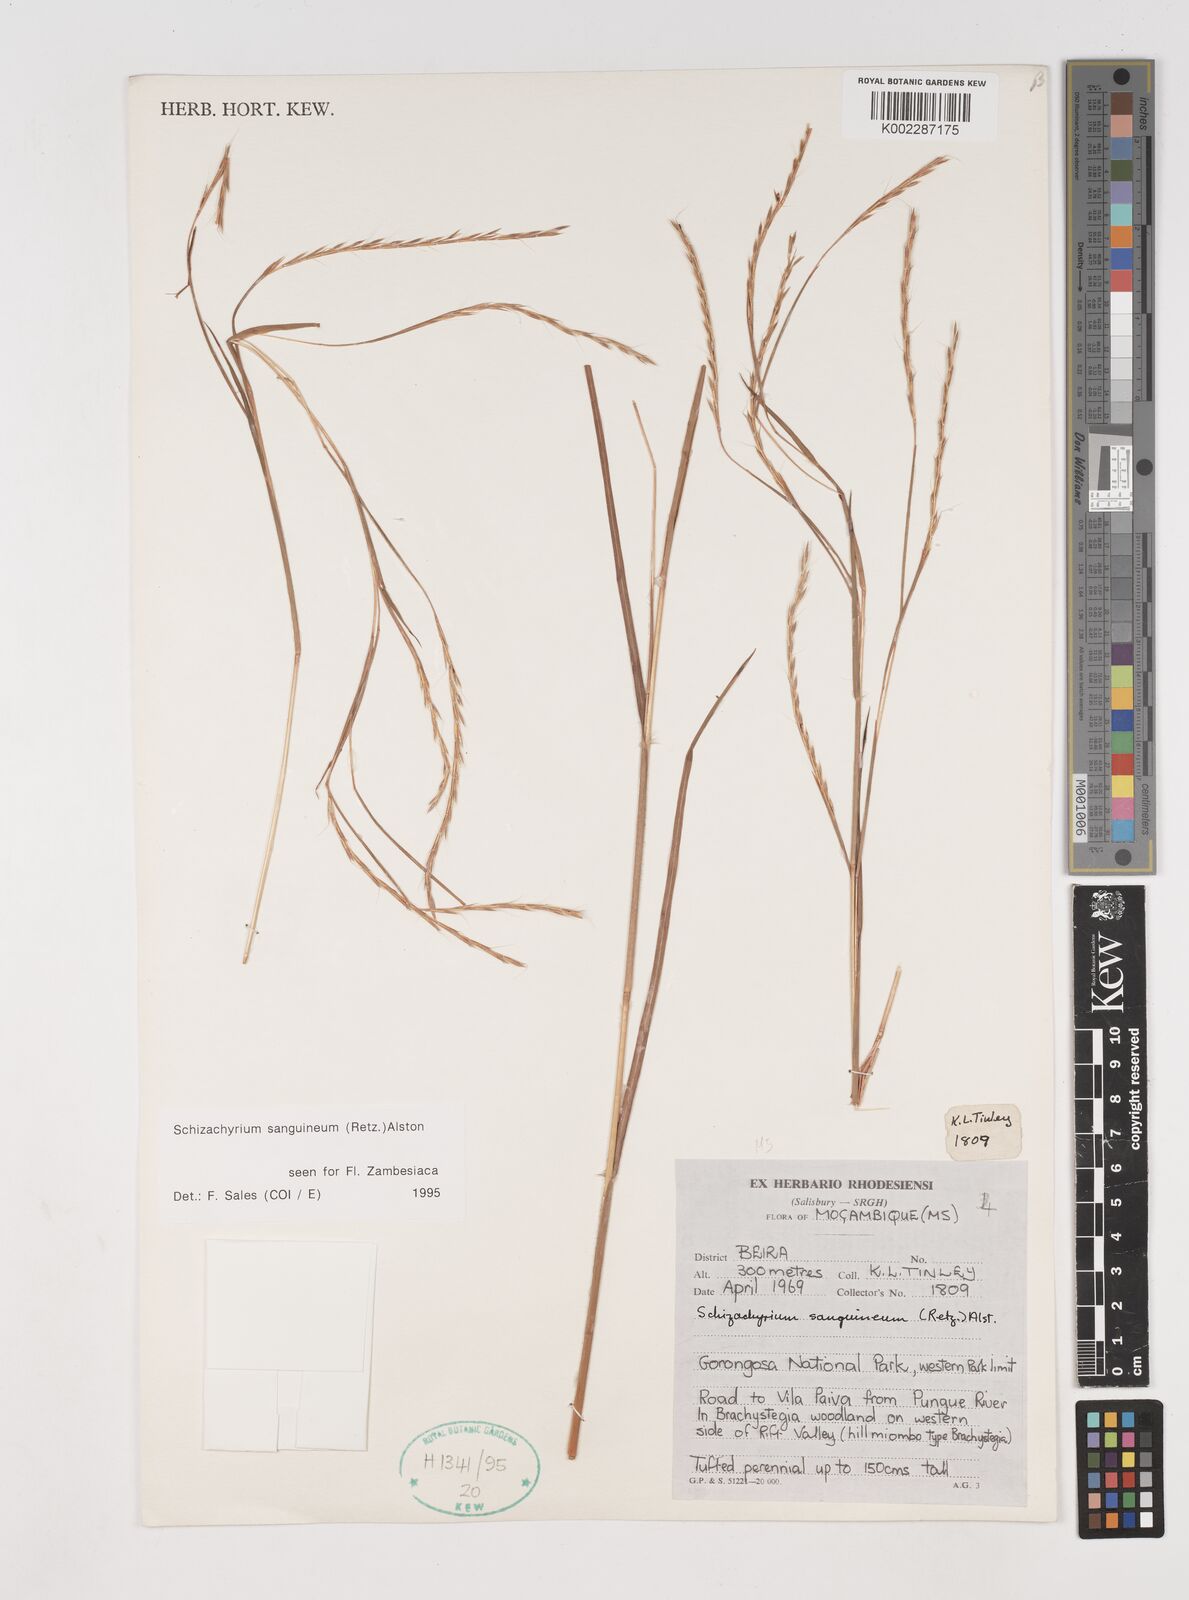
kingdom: Plantae
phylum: Tracheophyta
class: Liliopsida
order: Poales
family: Poaceae
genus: Schizachyrium
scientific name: Schizachyrium sanguineum
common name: Crimson bluestem
